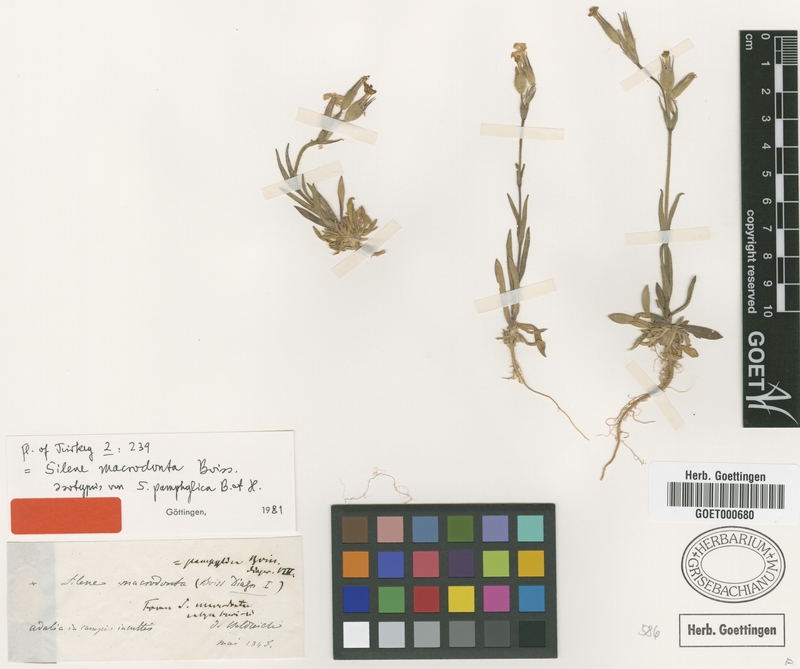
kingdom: Plantae
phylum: Tracheophyta
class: Magnoliopsida
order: Caryophyllales
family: Caryophyllaceae
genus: Silene
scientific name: Silene macrodonta
